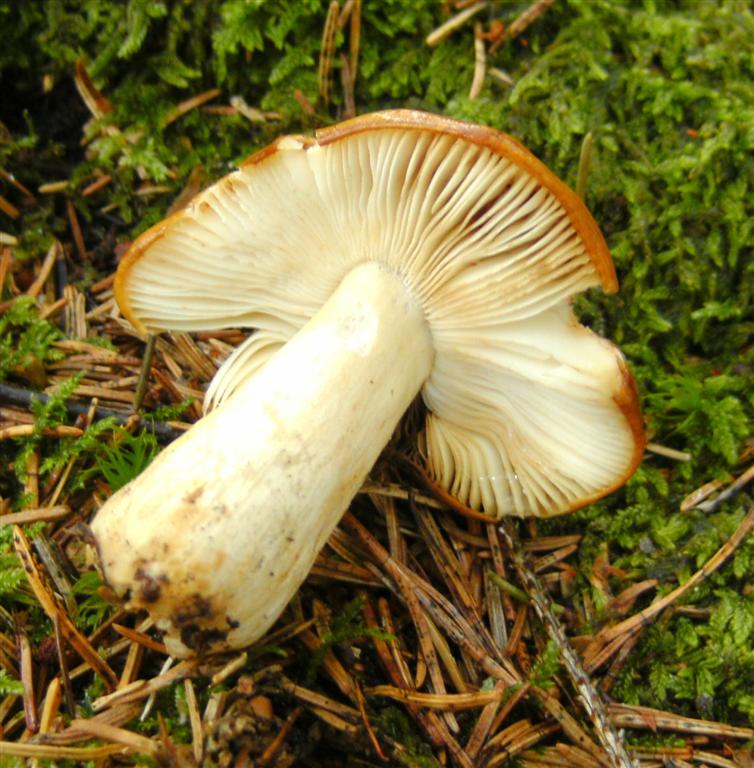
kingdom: Fungi
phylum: Basidiomycota
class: Agaricomycetes
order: Russulales
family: Russulaceae
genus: Russula
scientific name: Russula
